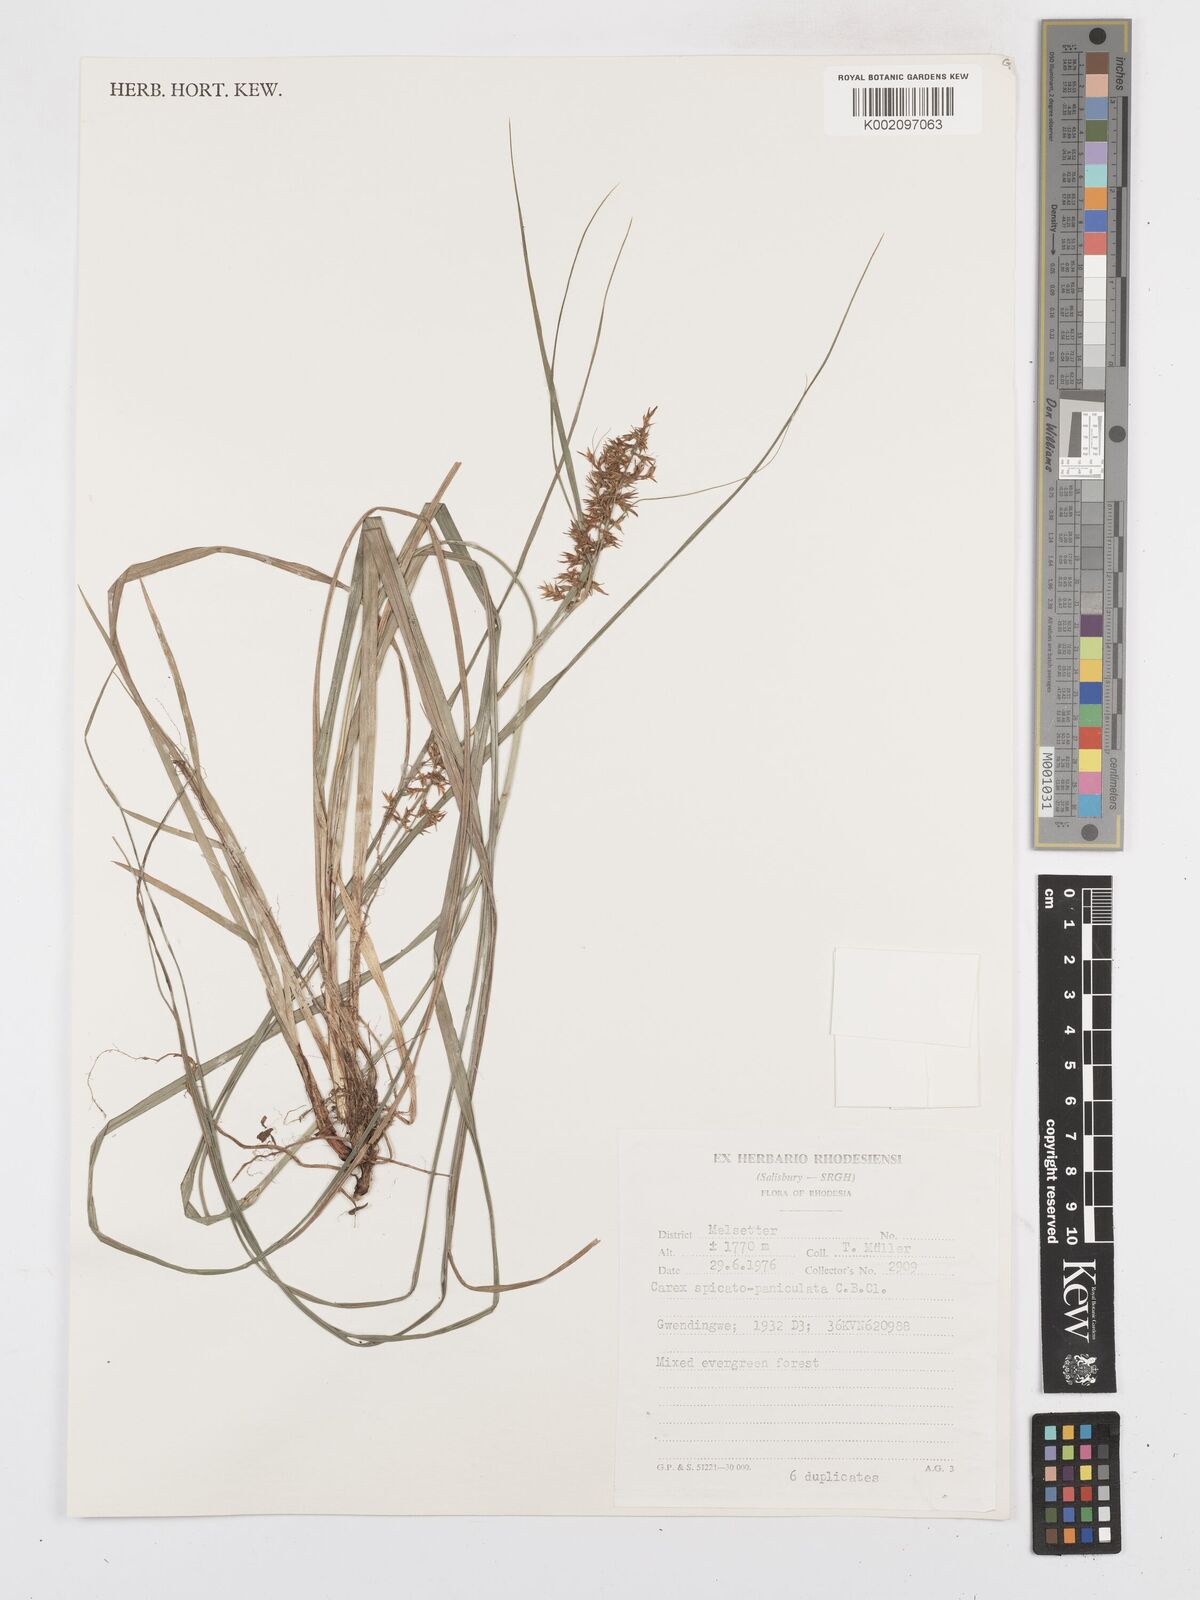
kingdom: Plantae
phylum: Tracheophyta
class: Liliopsida
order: Poales
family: Cyperaceae
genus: Carex
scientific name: Carex spicatopaniculata
